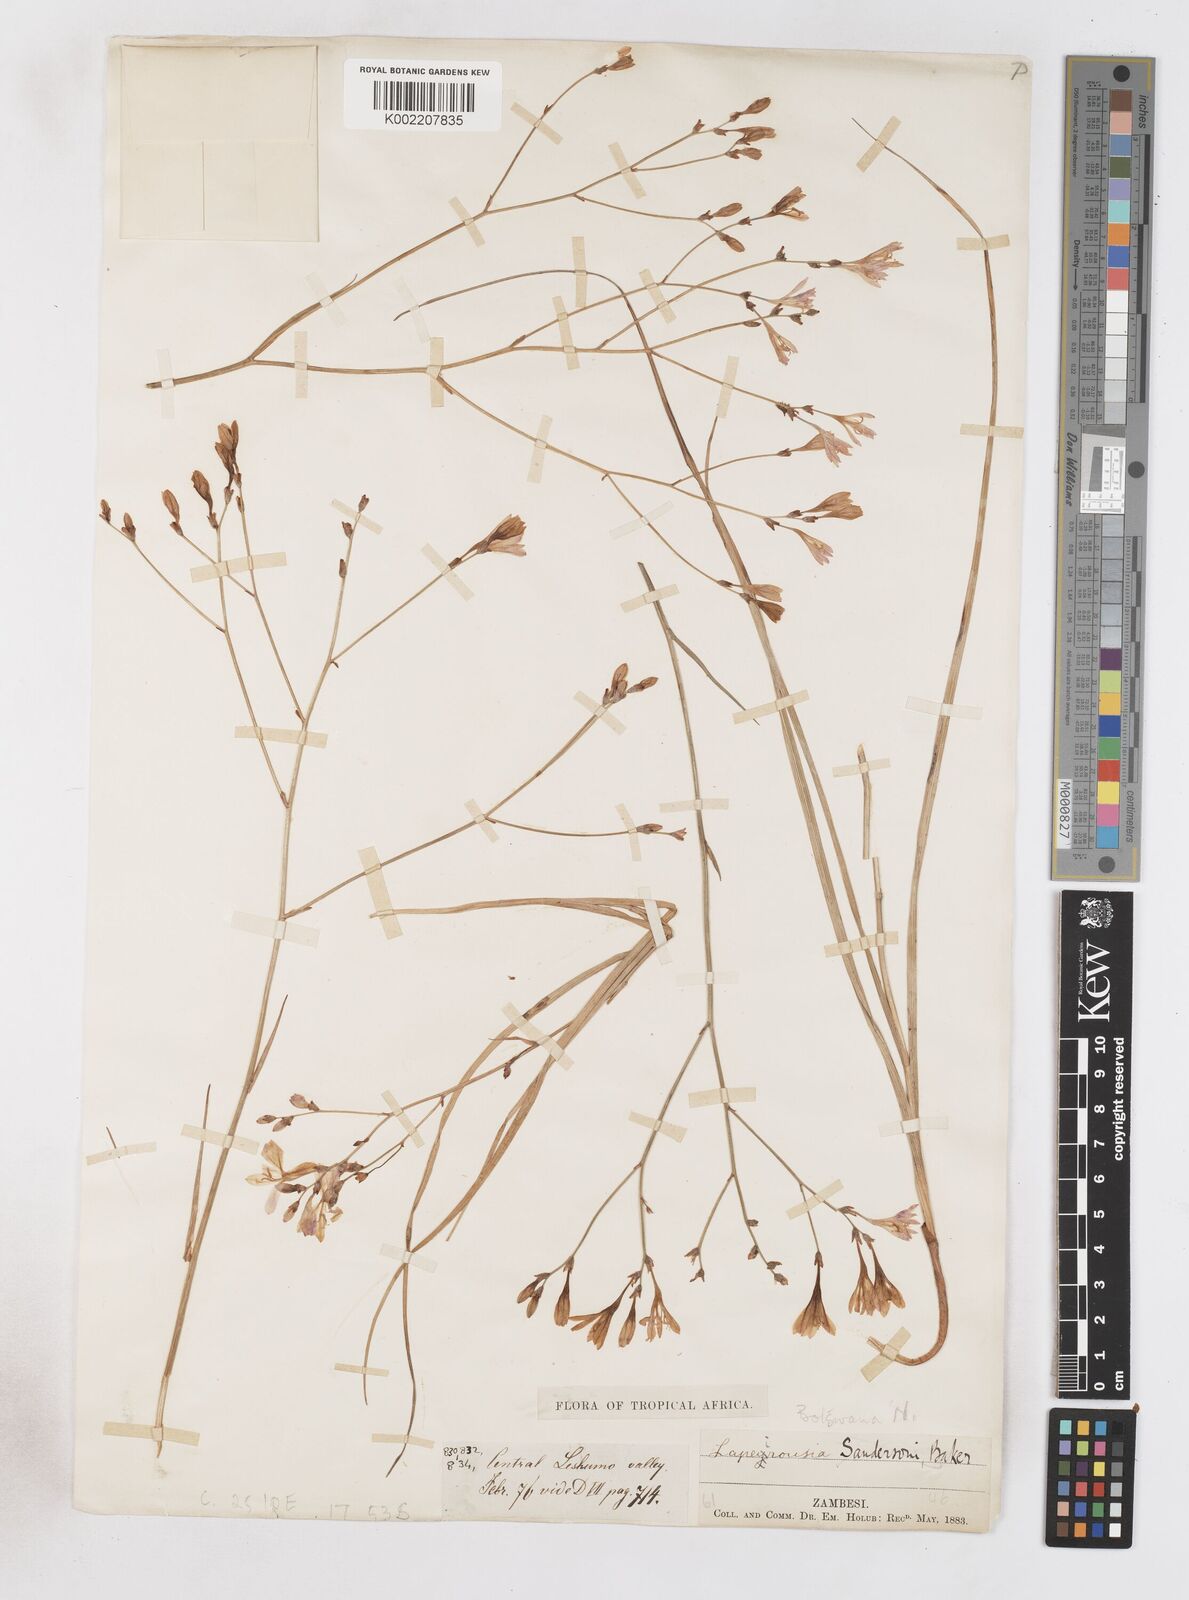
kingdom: Plantae
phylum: Tracheophyta
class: Liliopsida
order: Asparagales
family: Iridaceae
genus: Afrosolen
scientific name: Afrosolen rivularis
